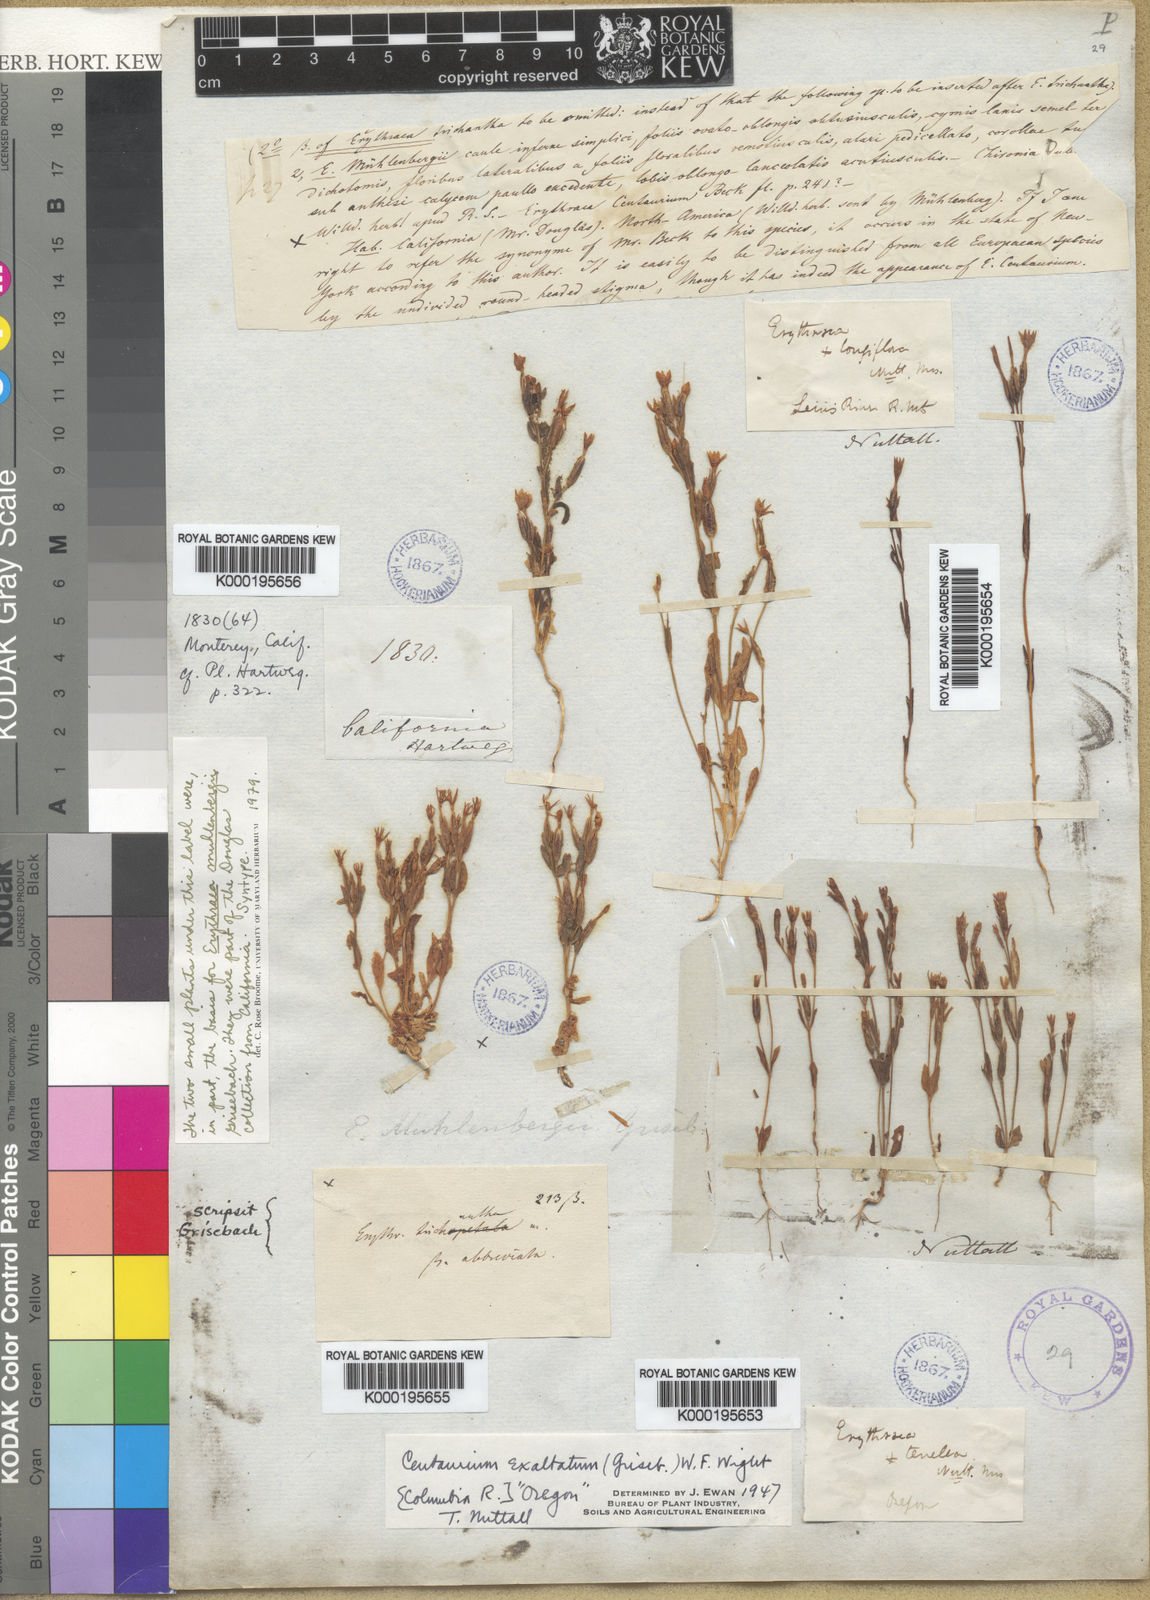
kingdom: Plantae
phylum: Tracheophyta
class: Magnoliopsida
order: Gentianales
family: Gentianaceae
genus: Centaurium
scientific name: Centaurium
